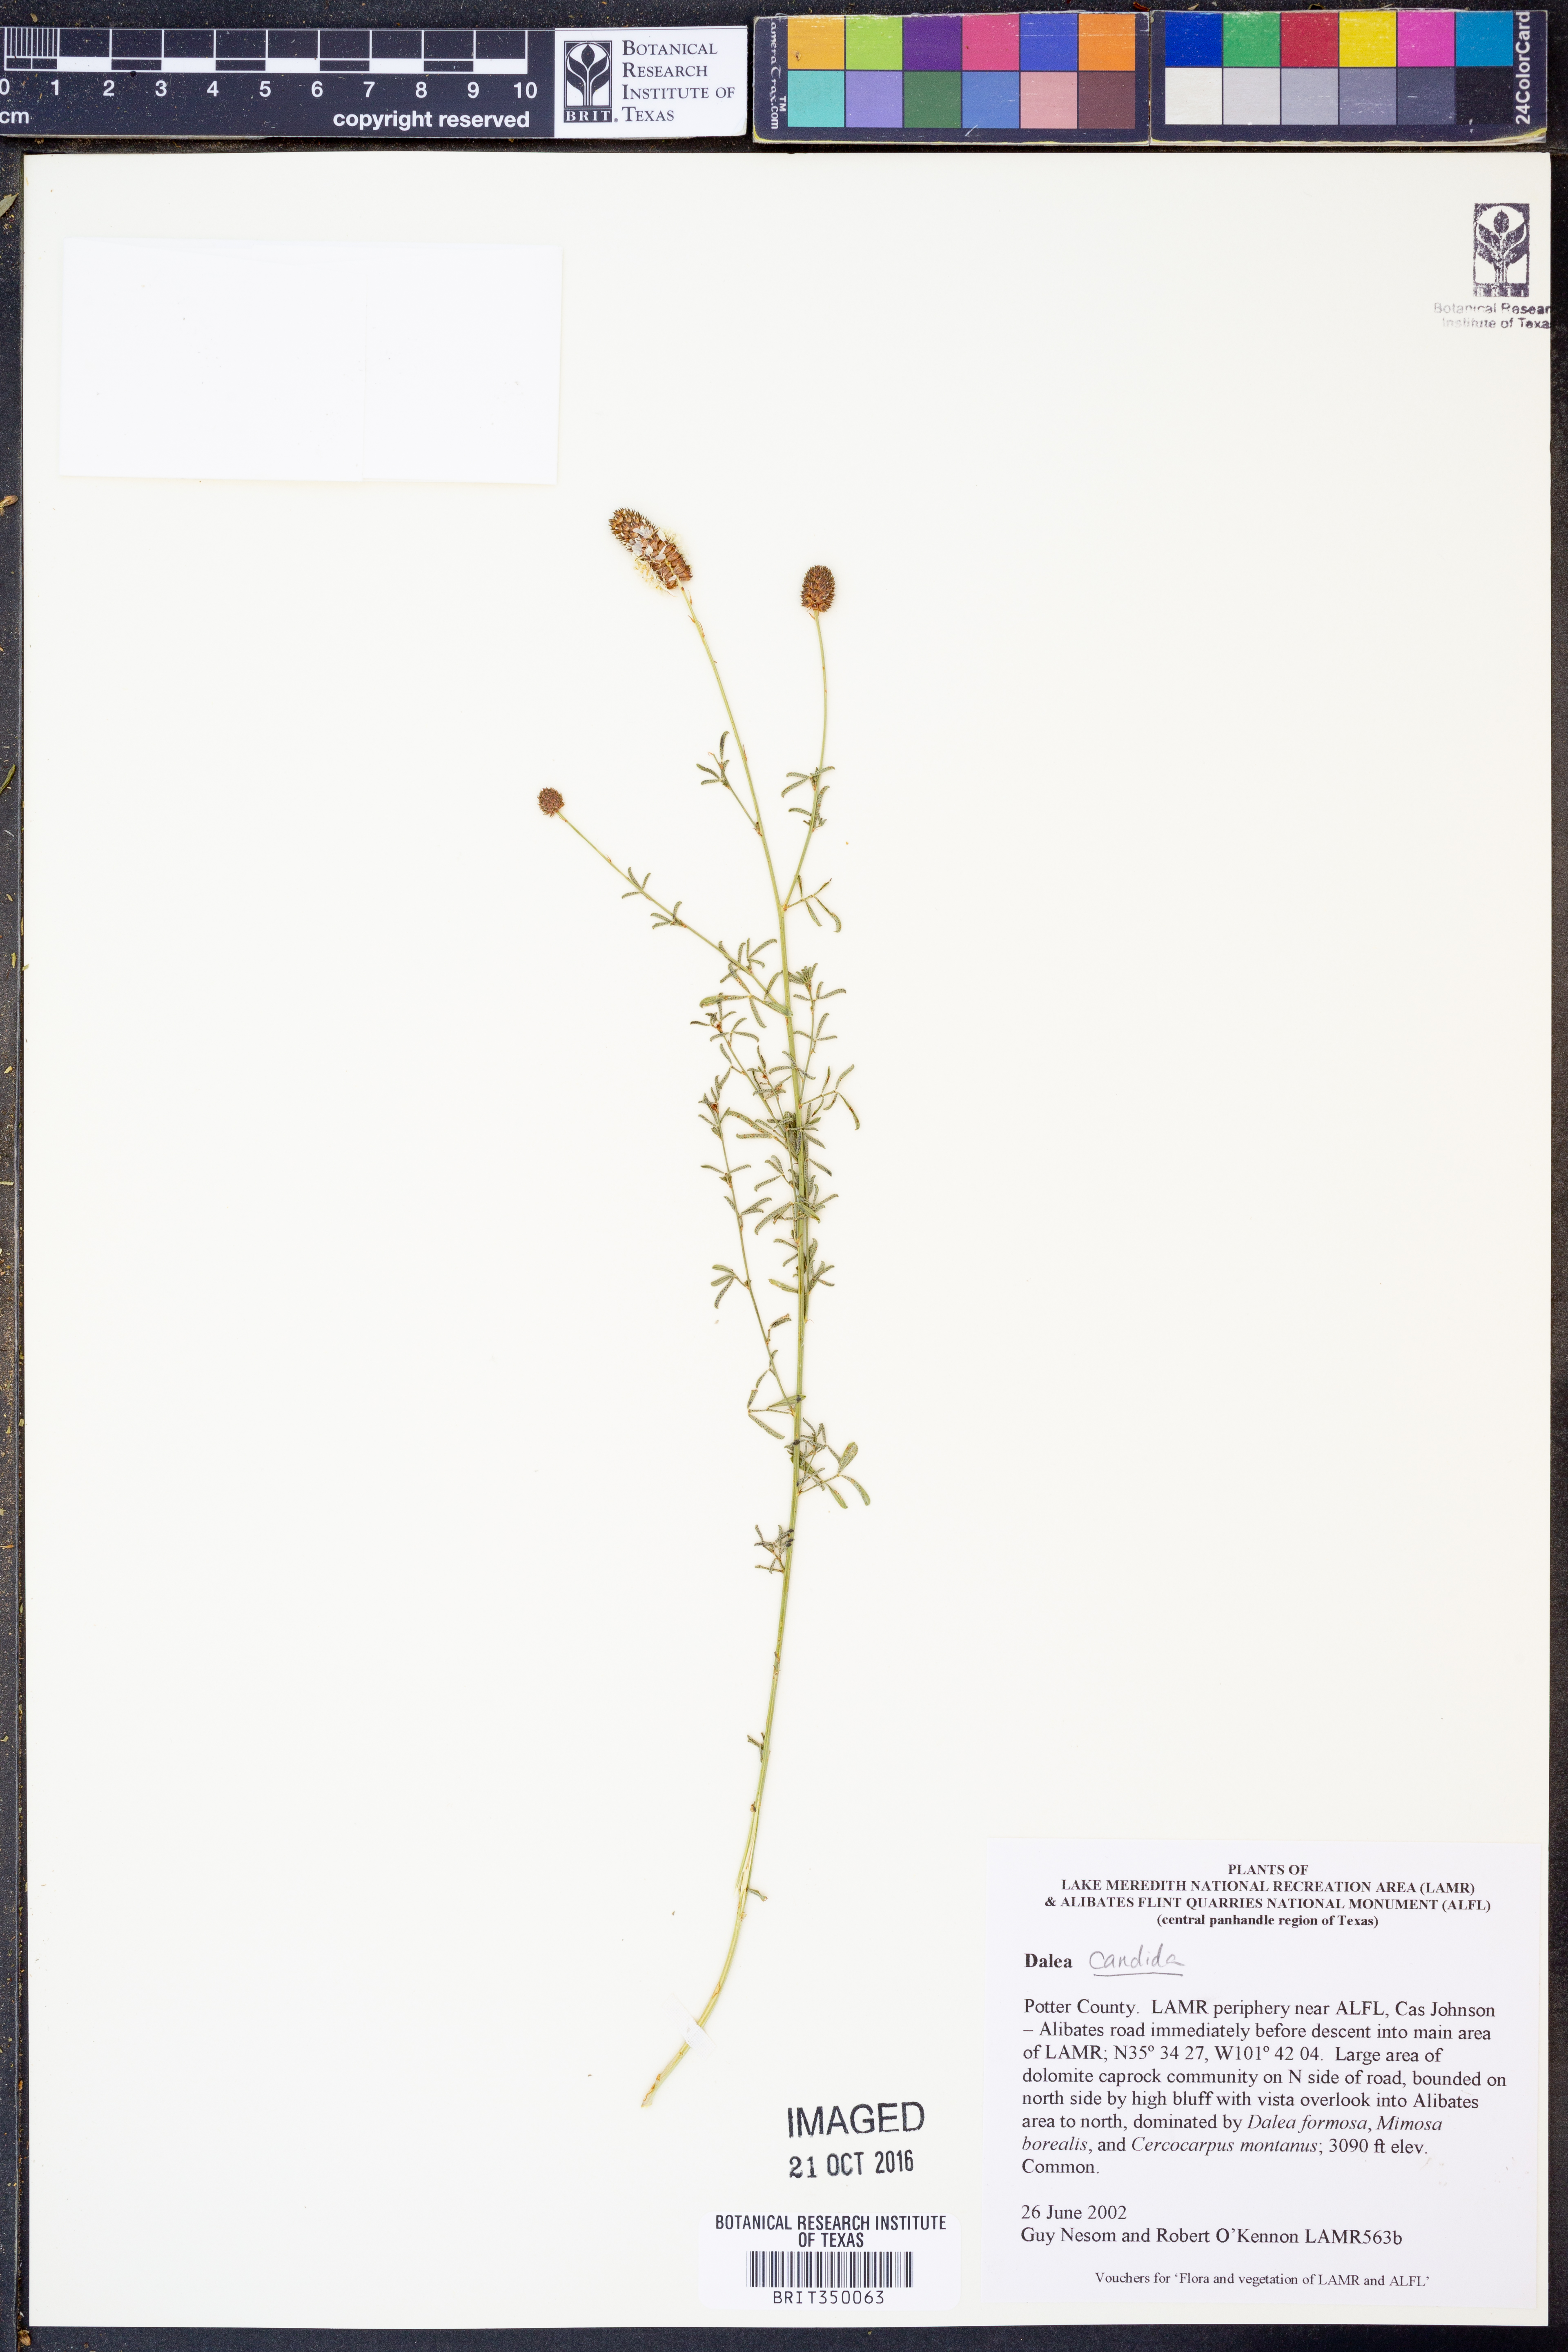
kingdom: Plantae
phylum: Tracheophyta
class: Magnoliopsida
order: Fabales
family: Fabaceae
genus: Dalea
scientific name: Dalea candida
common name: White prairie-clover
